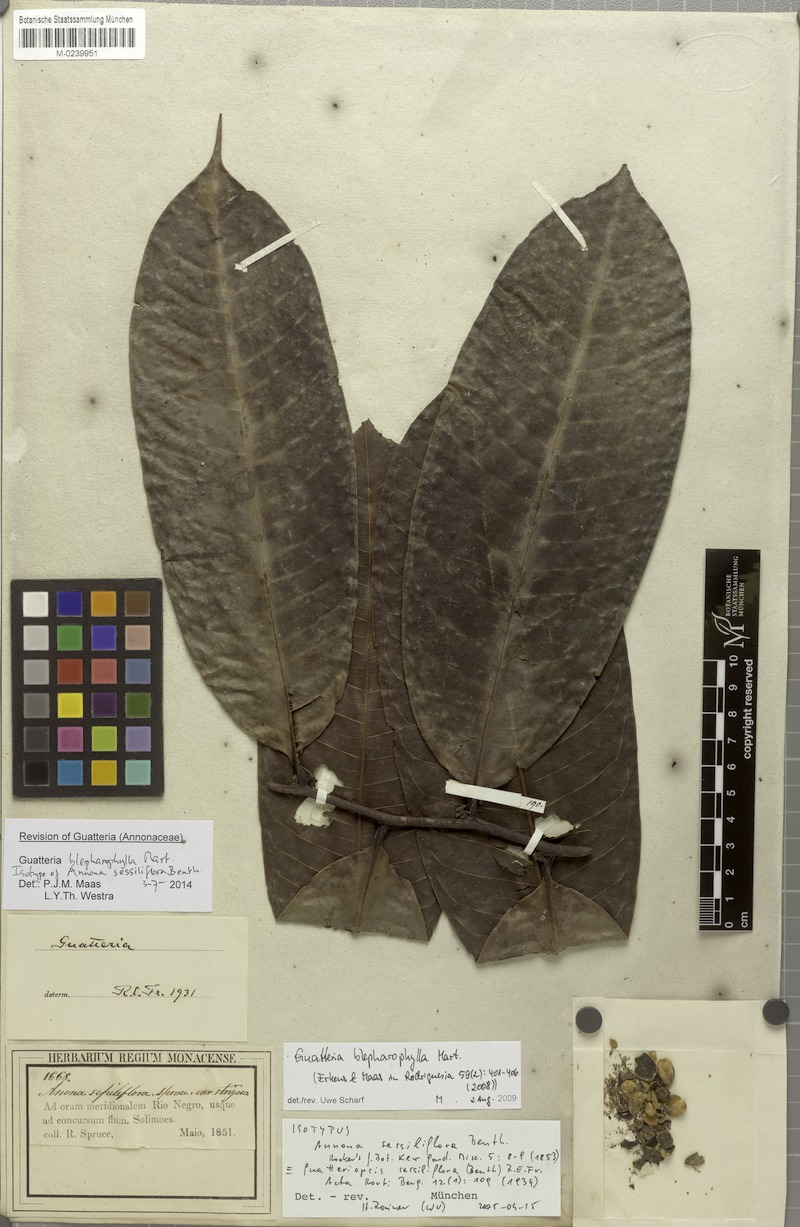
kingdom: Plantae
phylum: Tracheophyta
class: Magnoliopsida
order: Magnoliales
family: Annonaceae
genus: Guatteria
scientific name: Guatteria blepharophylla
